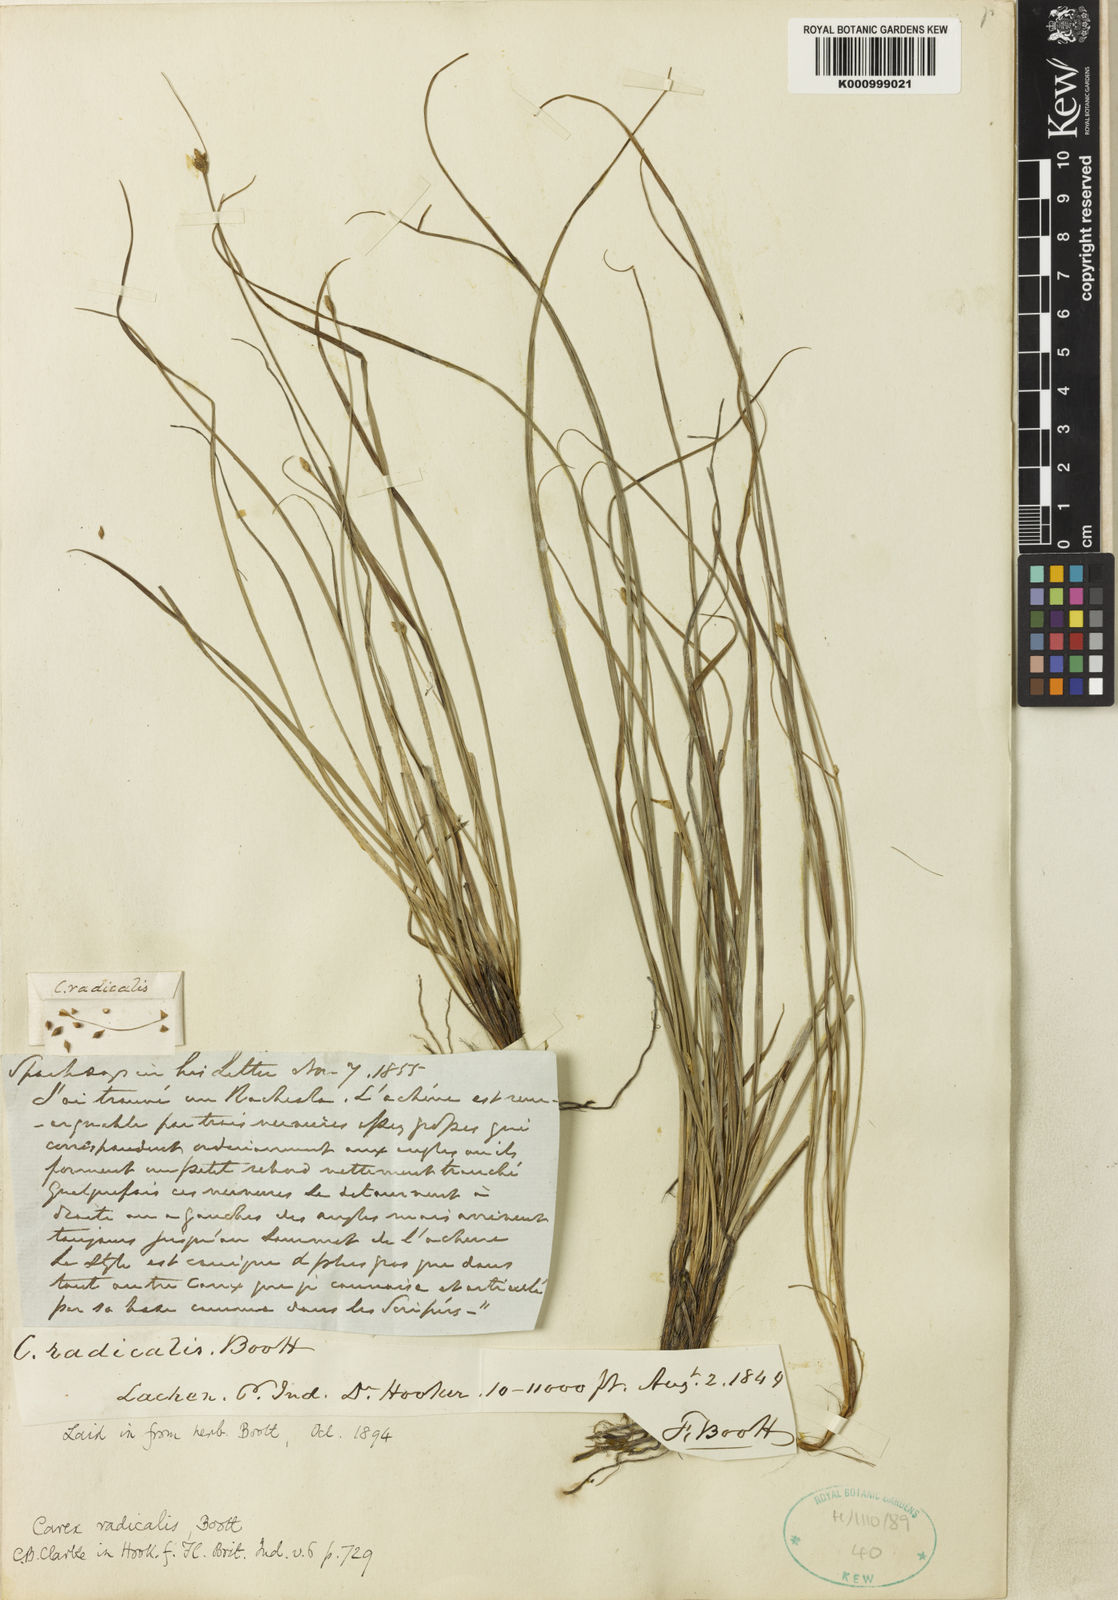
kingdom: Plantae
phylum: Tracheophyta
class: Liliopsida
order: Poales
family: Cyperaceae
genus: Carex
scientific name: Carex radicalis
